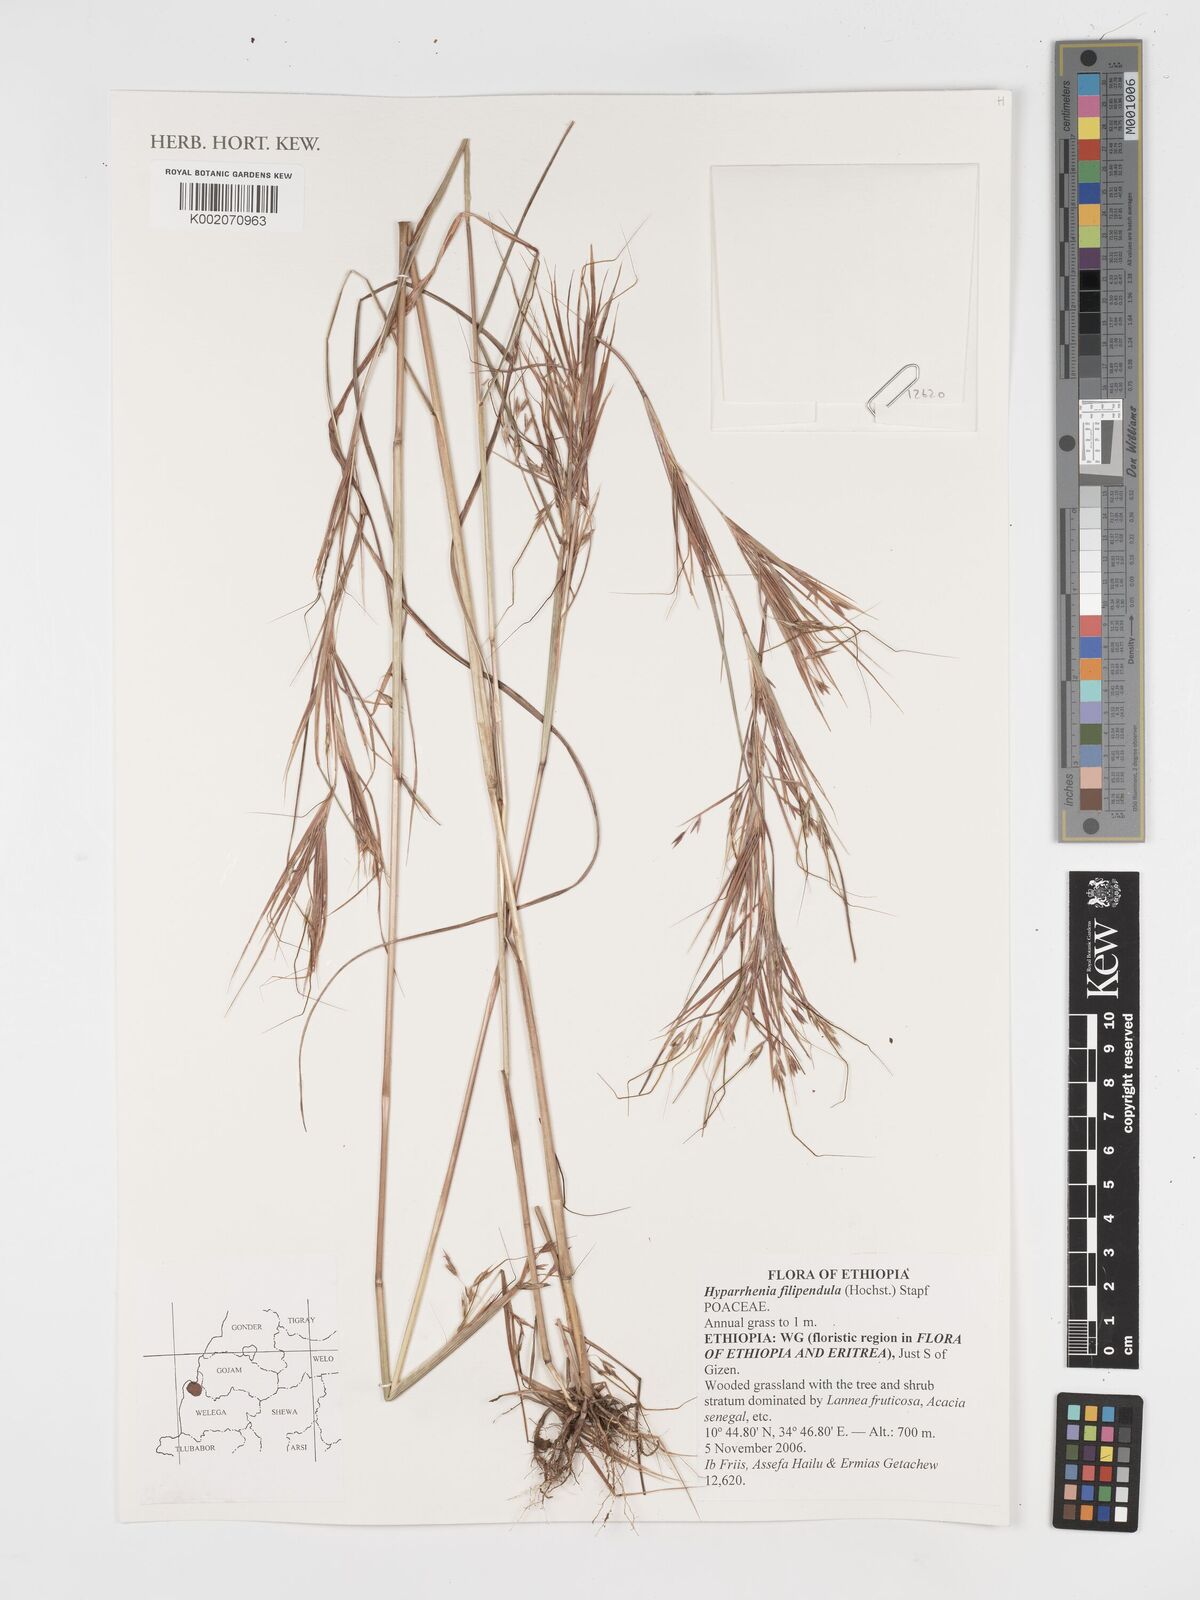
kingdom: Plantae
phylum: Tracheophyta
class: Liliopsida
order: Poales
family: Poaceae
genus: Hyparrhenia
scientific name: Hyparrhenia filipendula
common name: Tambookie grass
